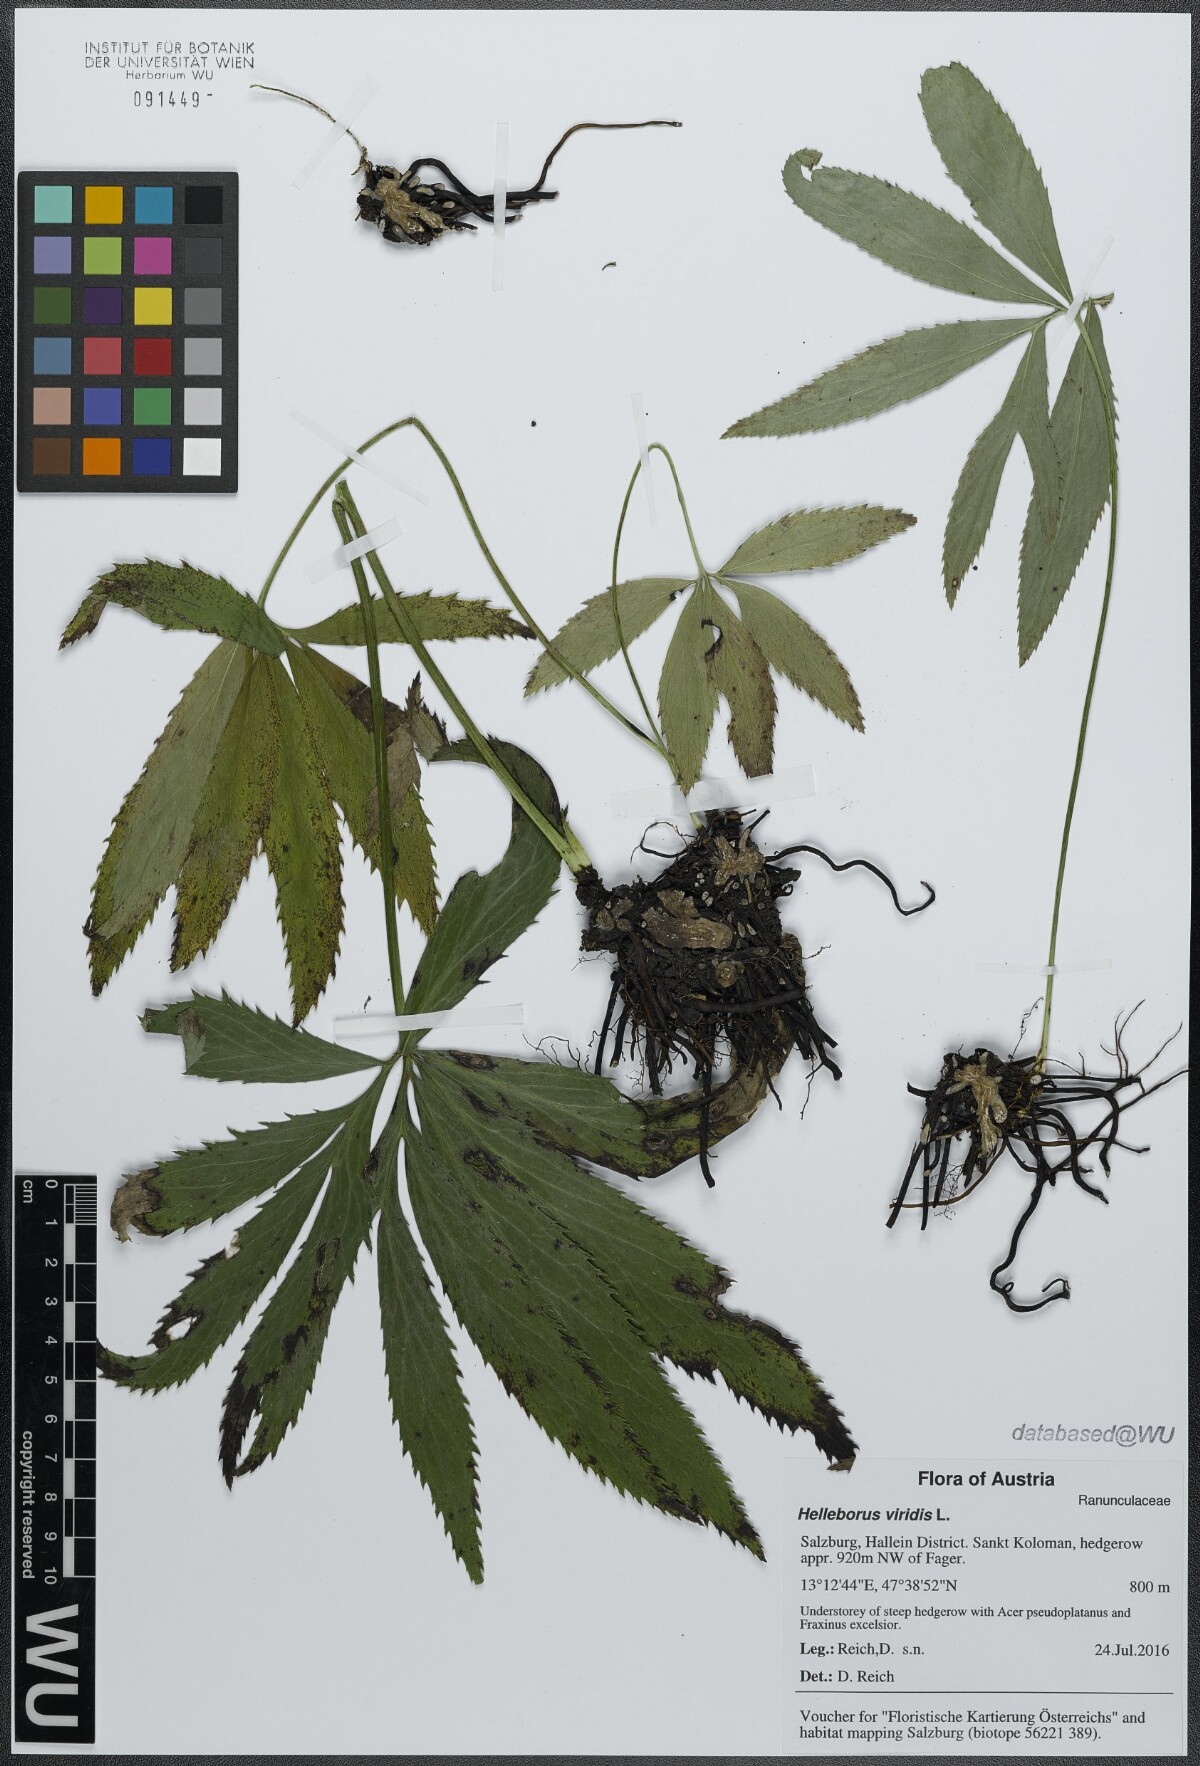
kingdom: Plantae
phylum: Tracheophyta
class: Magnoliopsida
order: Ranunculales
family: Ranunculaceae
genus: Helleborus
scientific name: Helleborus viridis
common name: Green hellebore
